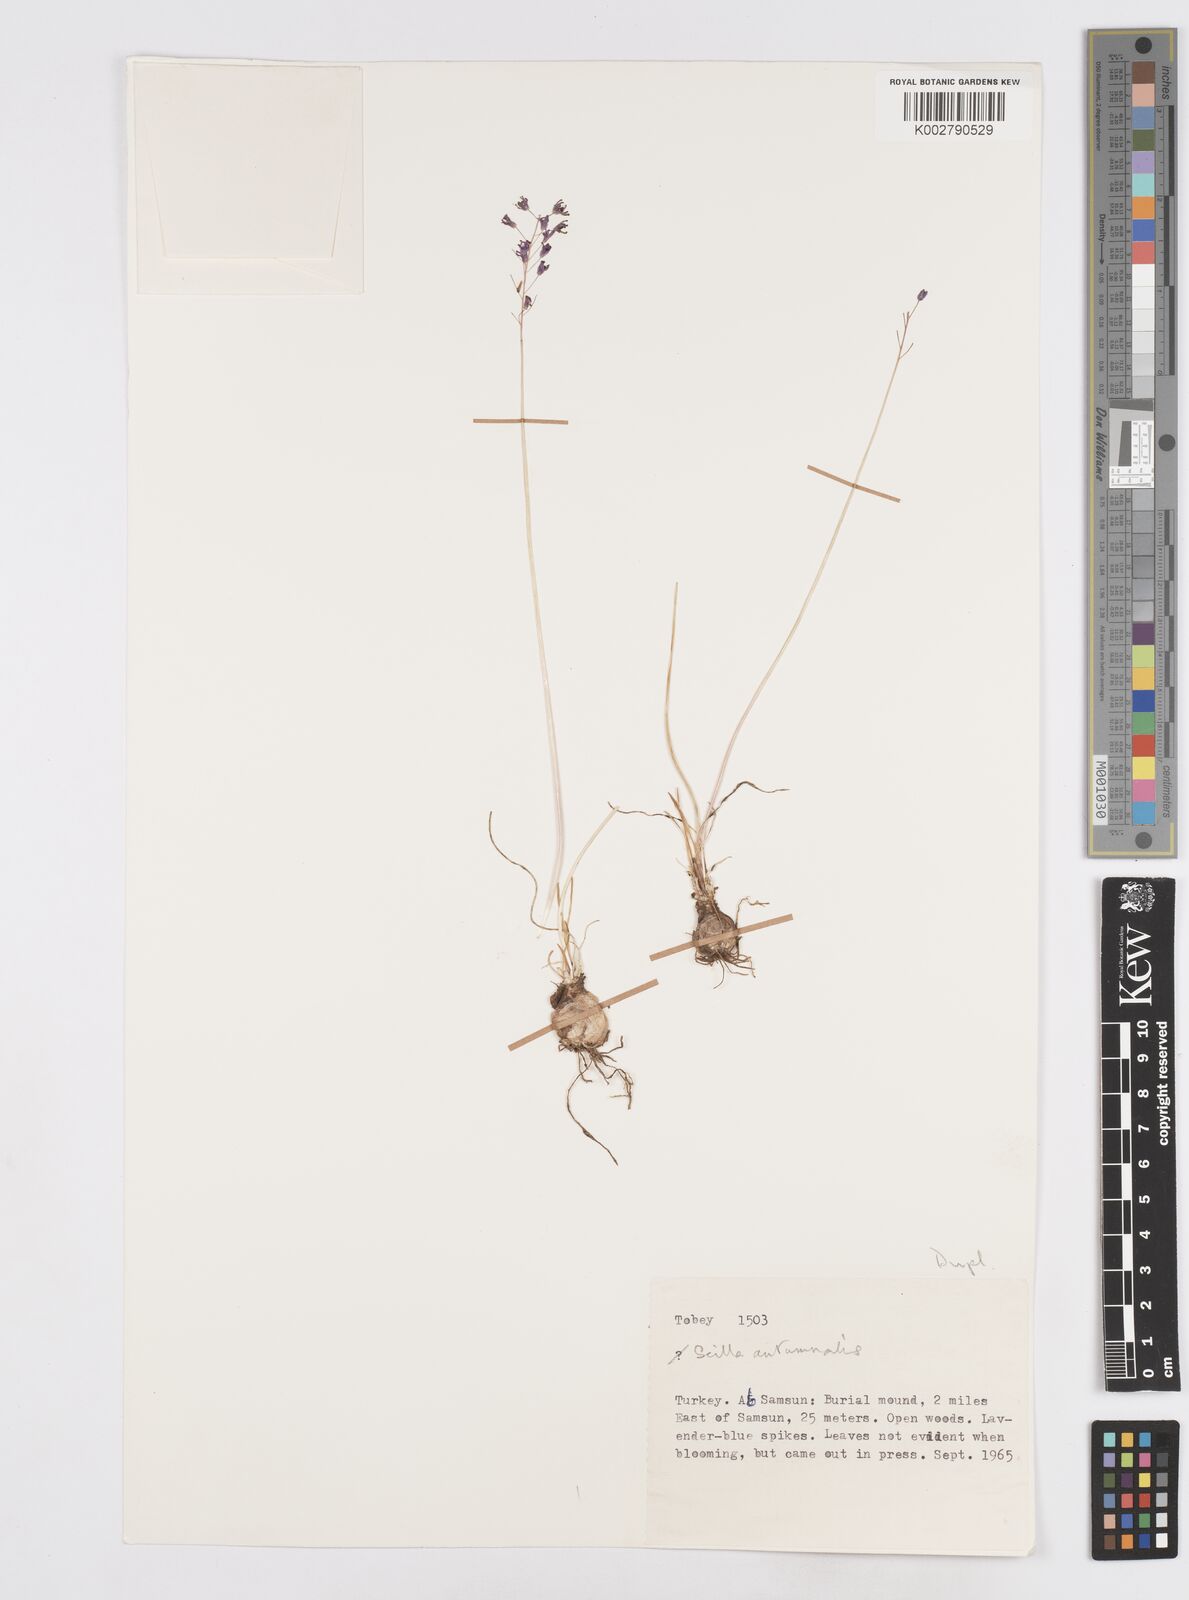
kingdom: Plantae
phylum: Tracheophyta
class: Liliopsida
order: Asparagales
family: Asparagaceae
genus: Prospero
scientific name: Prospero autumnale
